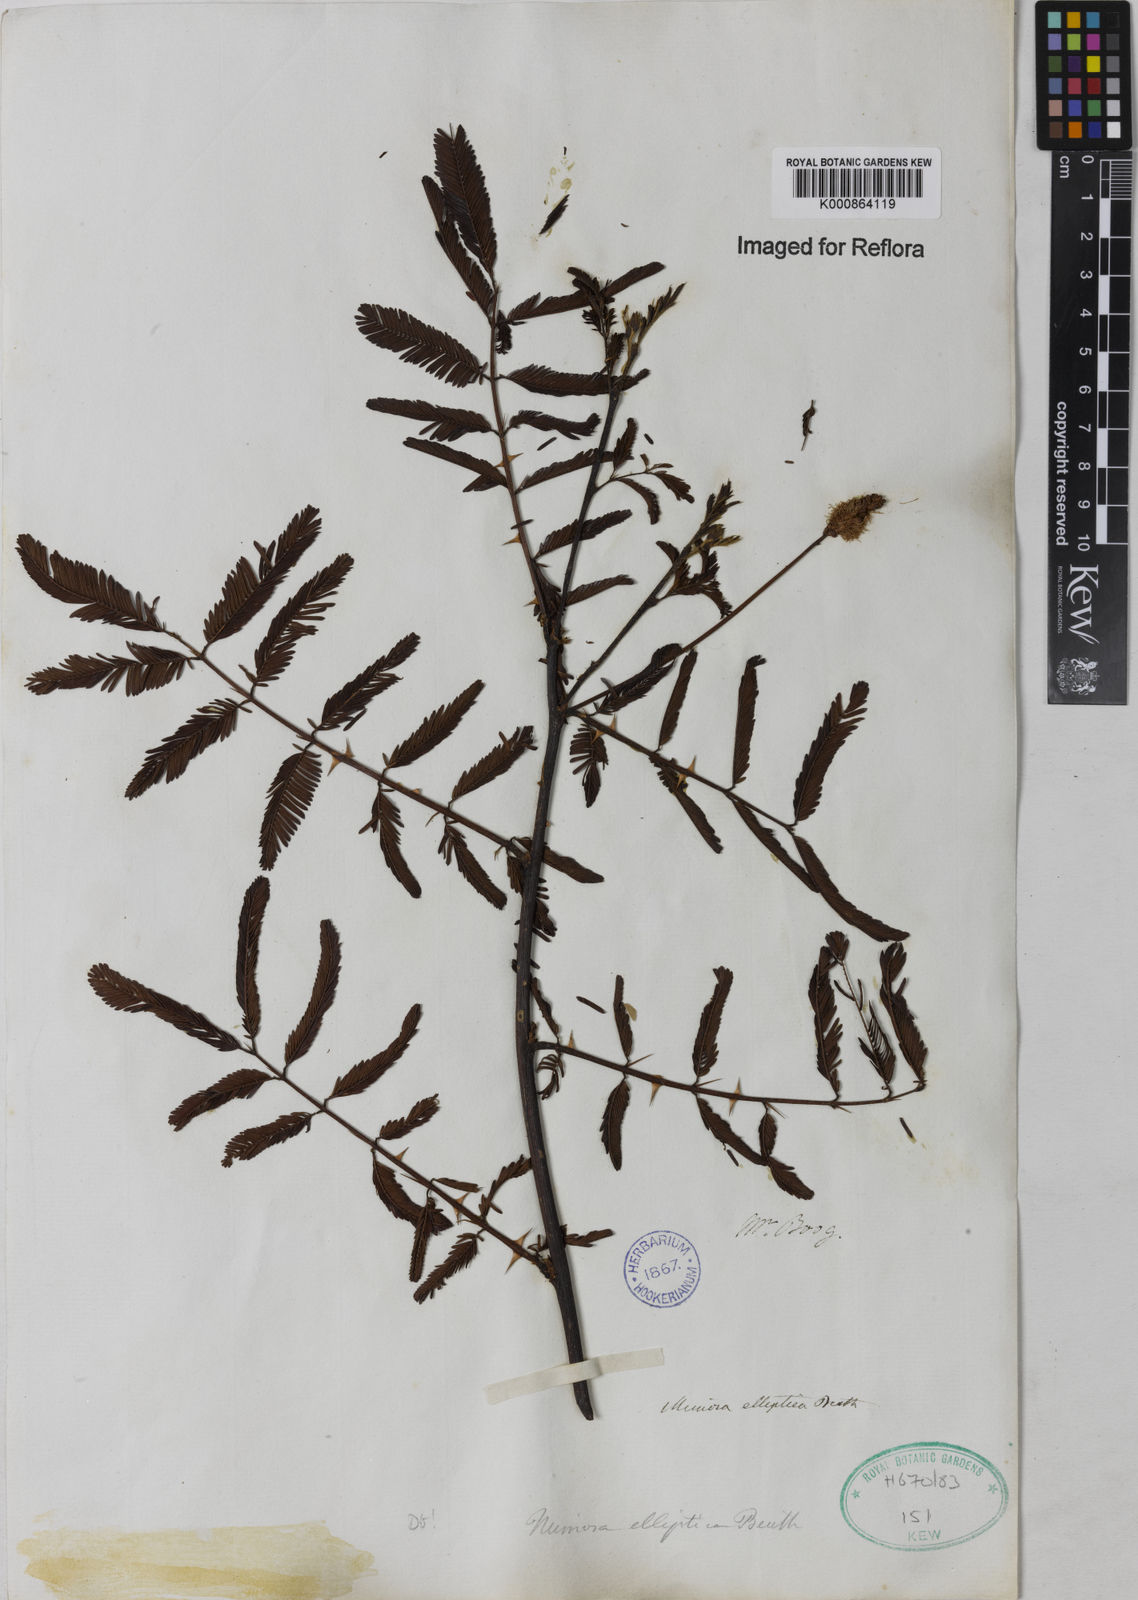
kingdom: Plantae
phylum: Tracheophyta
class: Magnoliopsida
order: Fabales
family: Fabaceae
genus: Mimosa
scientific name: Mimosa elliptica
